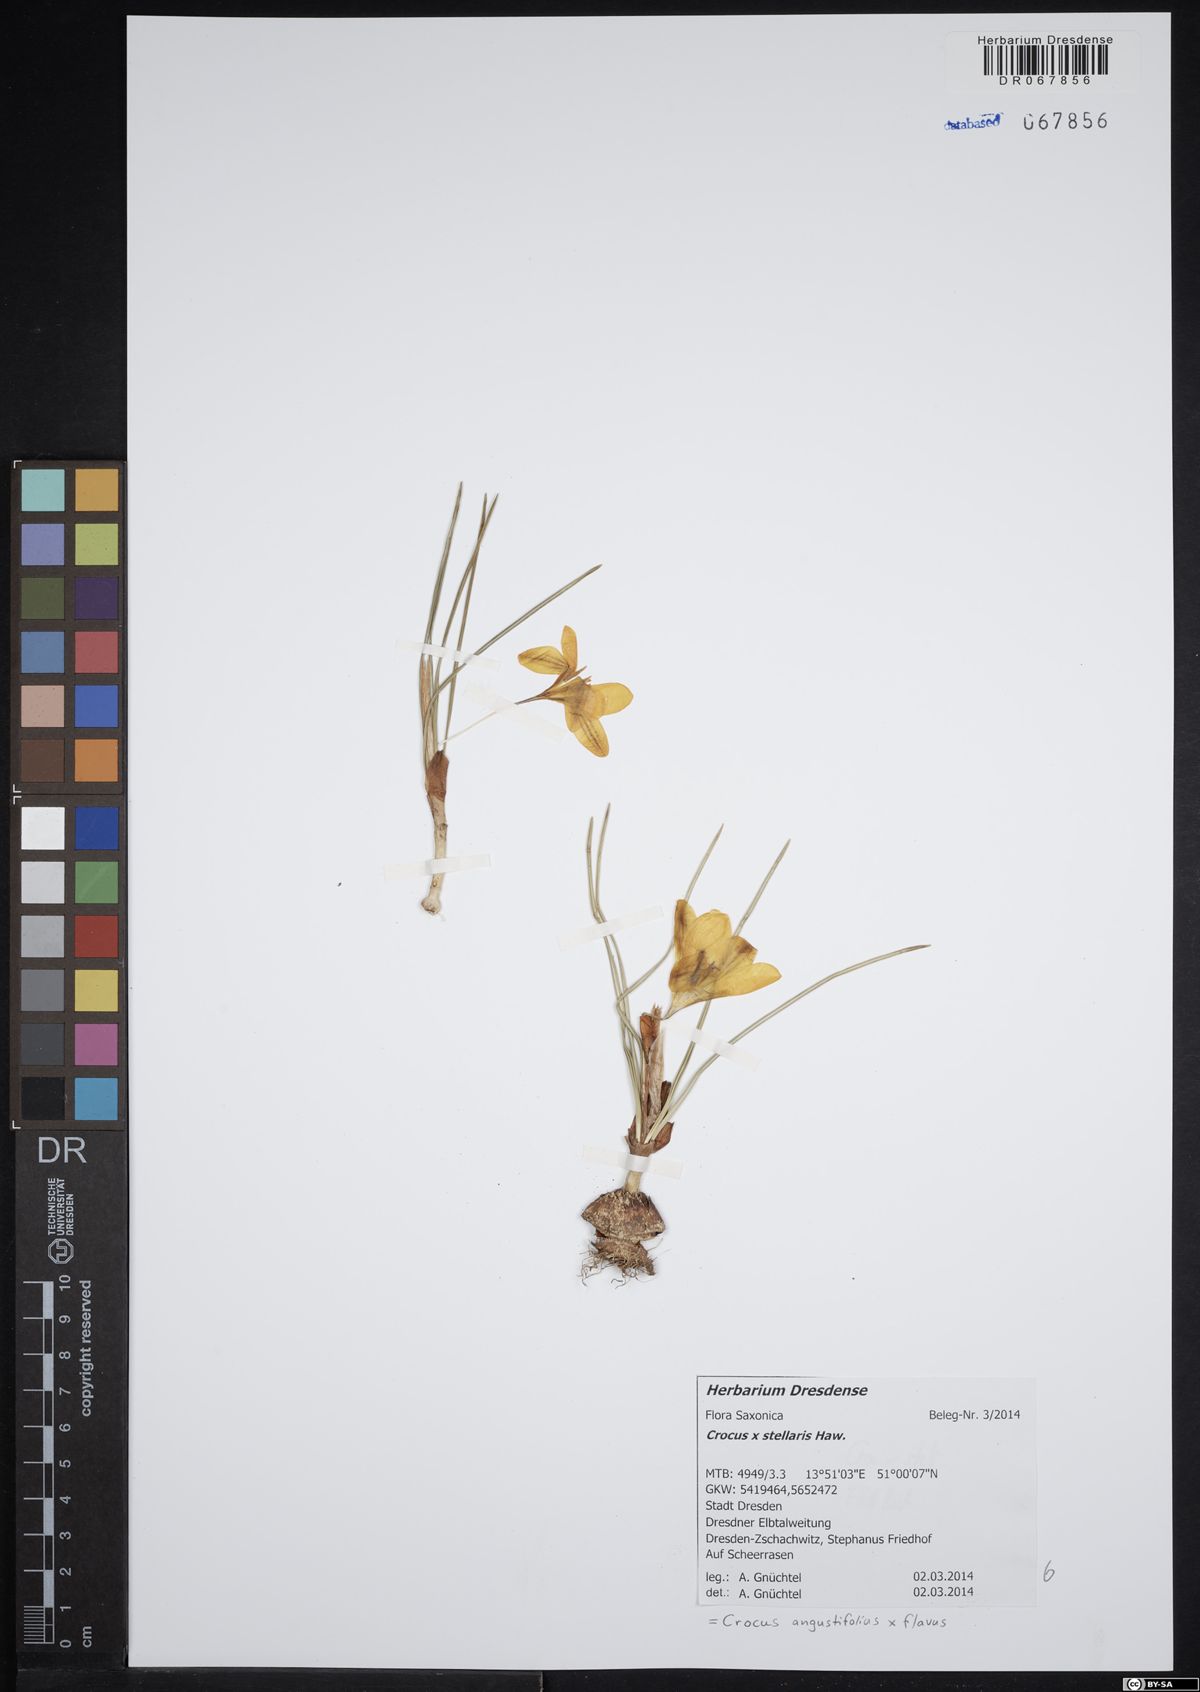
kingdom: Plantae
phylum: Tracheophyta
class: Liliopsida
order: Asparagales
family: Iridaceae
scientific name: Iridaceae
